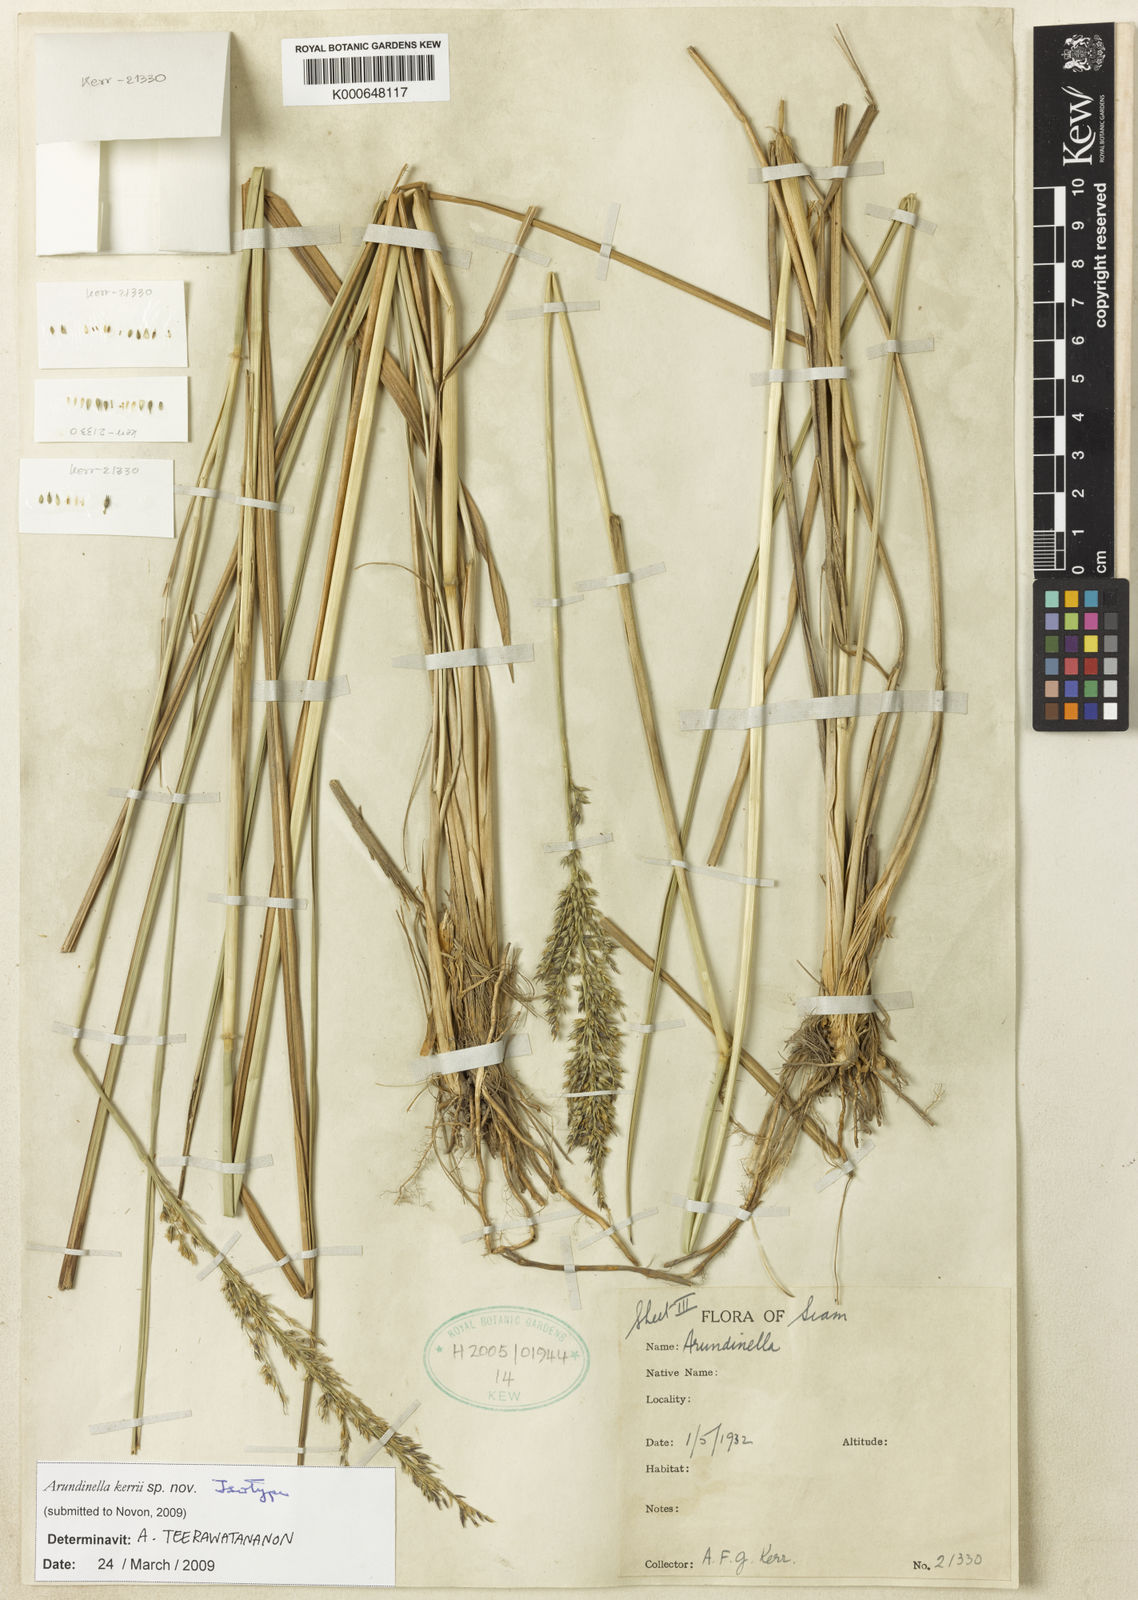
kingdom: Plantae
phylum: Tracheophyta
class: Liliopsida
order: Poales
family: Poaceae
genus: Arundinella
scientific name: Arundinella kerrii
